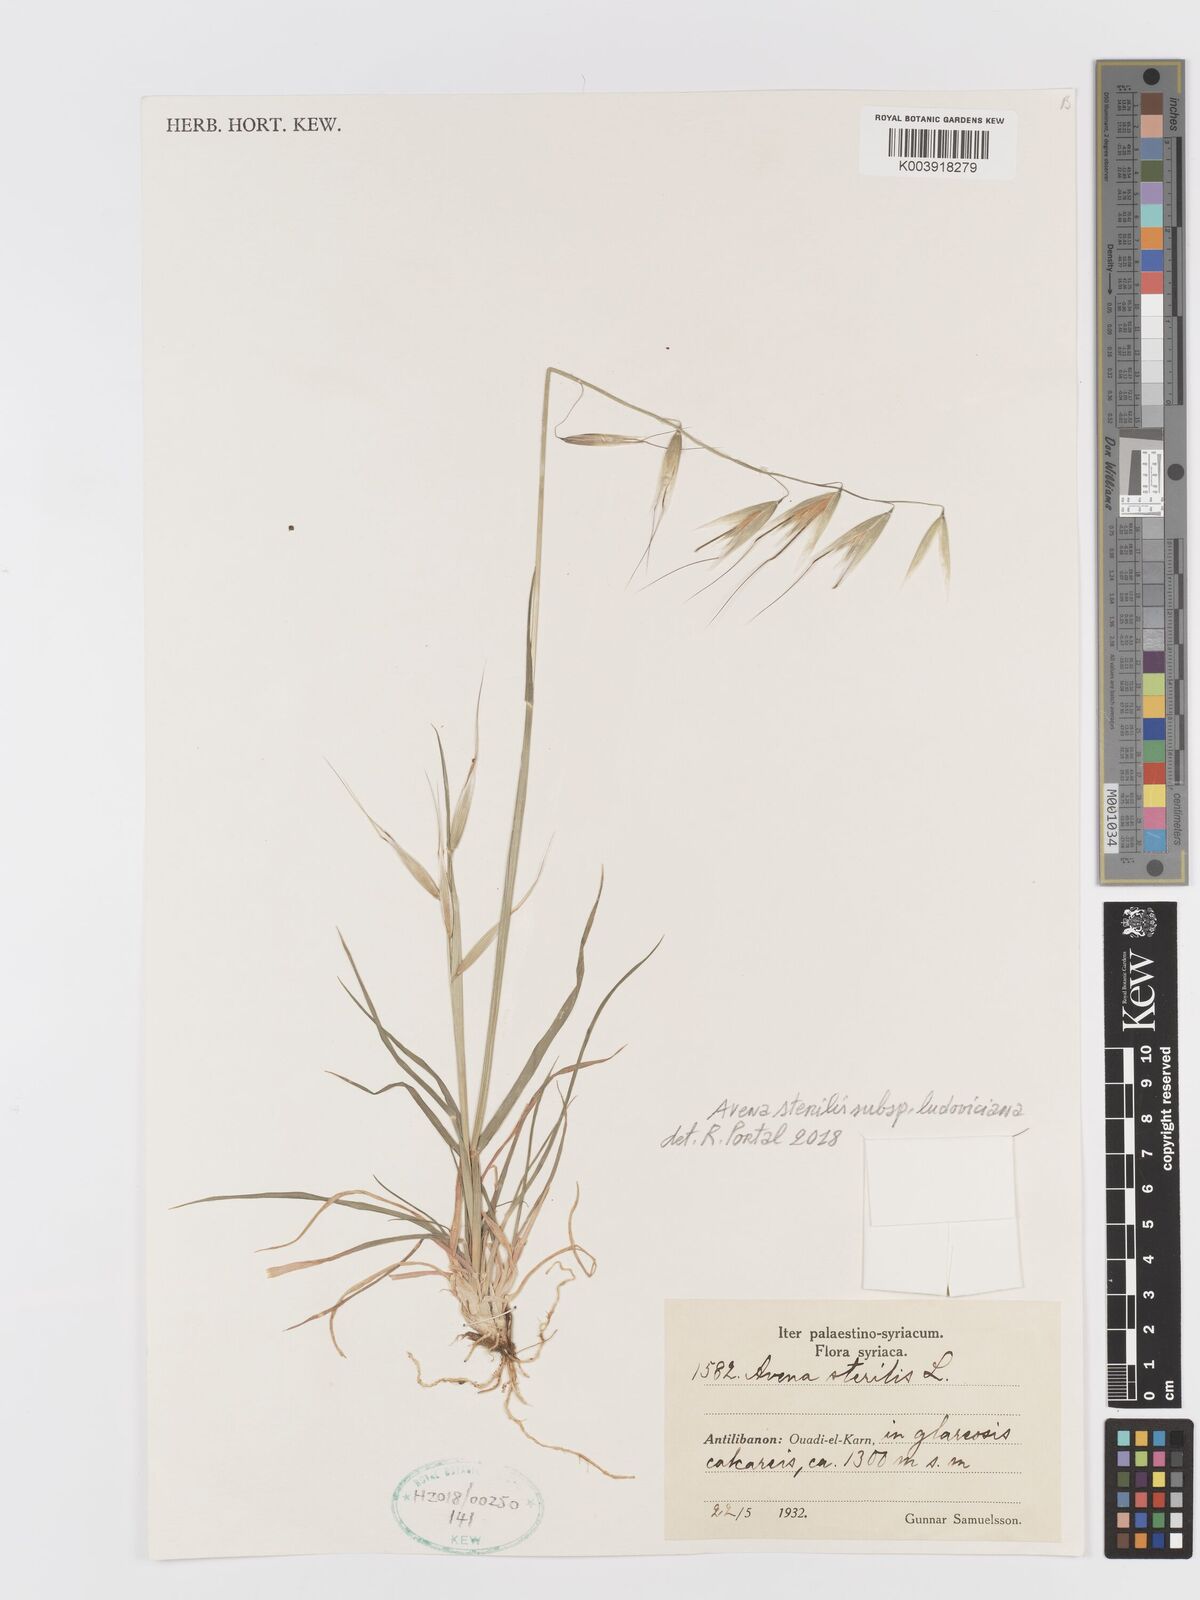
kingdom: Plantae
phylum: Tracheophyta
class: Liliopsida
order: Poales
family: Poaceae
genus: Avena
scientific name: Avena sterilis
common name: Animated oat
